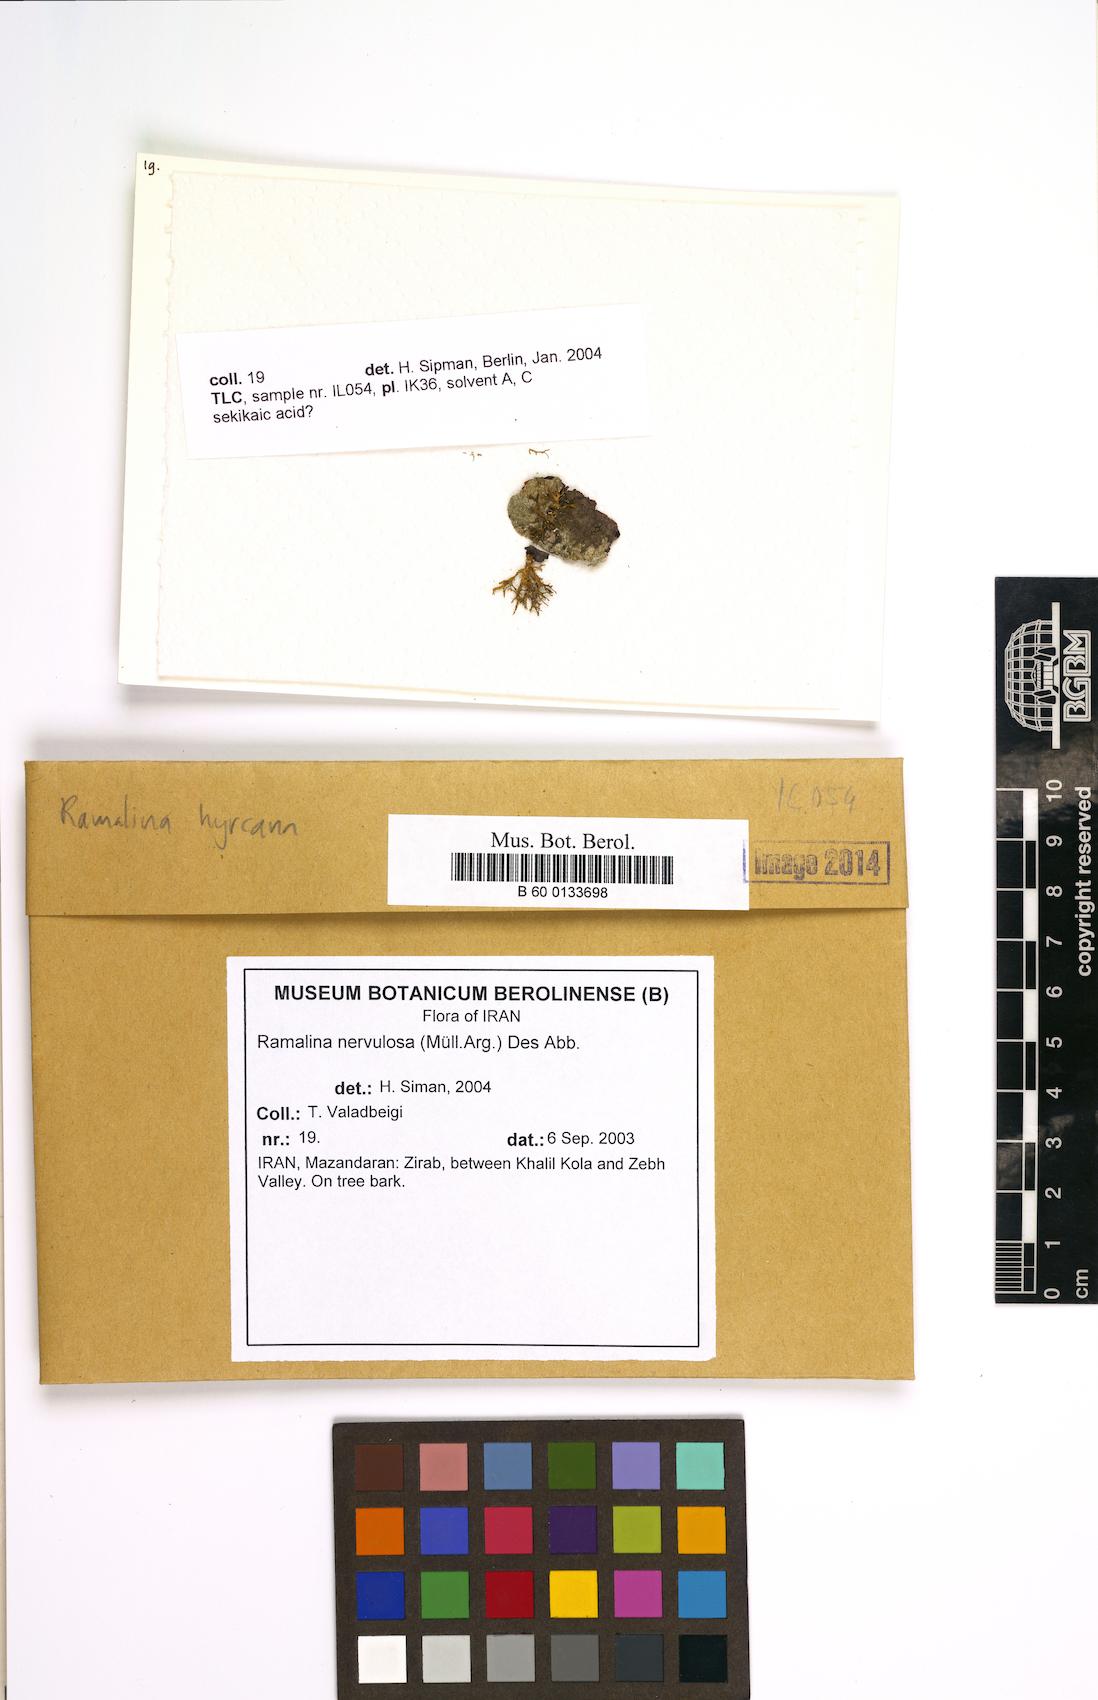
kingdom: Fungi
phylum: Ascomycota
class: Lecanoromycetes
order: Lecanorales
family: Ramalinaceae
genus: Ramalina
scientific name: Ramalina nervulosa
